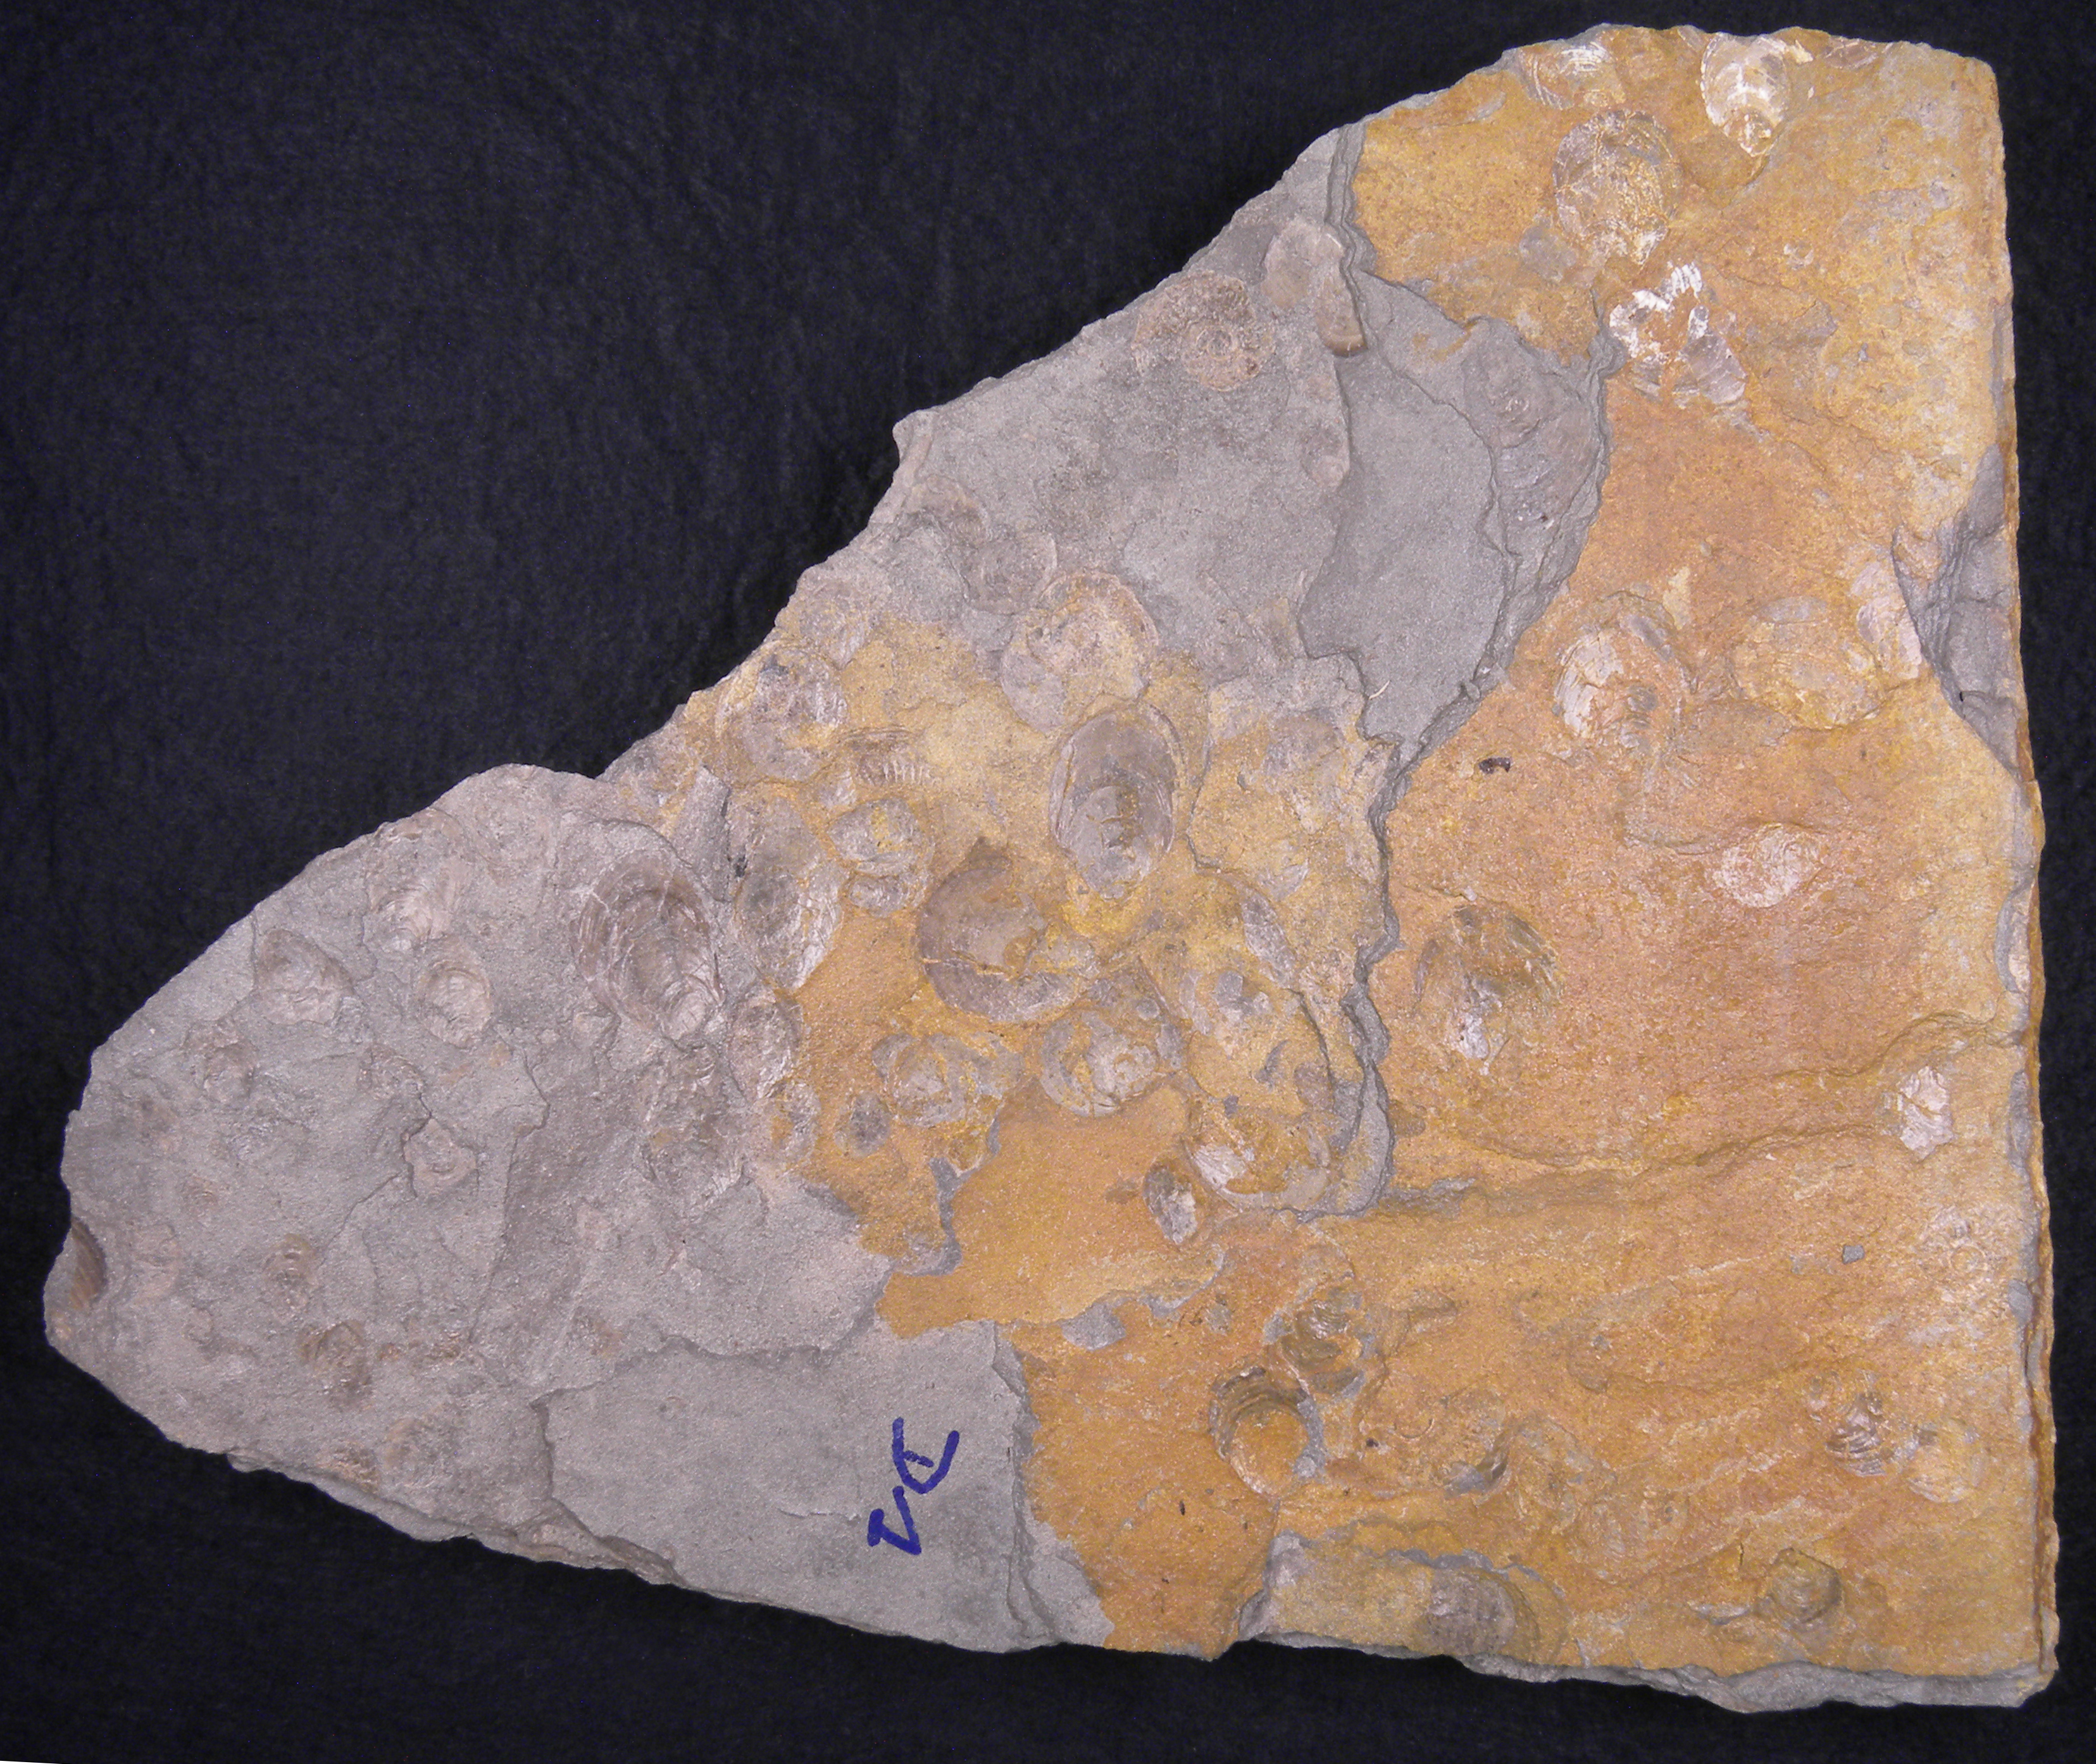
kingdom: Animalia
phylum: Mollusca
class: Bivalvia
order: Myalinida
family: Inoceramidae
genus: Inoceramus
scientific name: Inoceramus dubius
